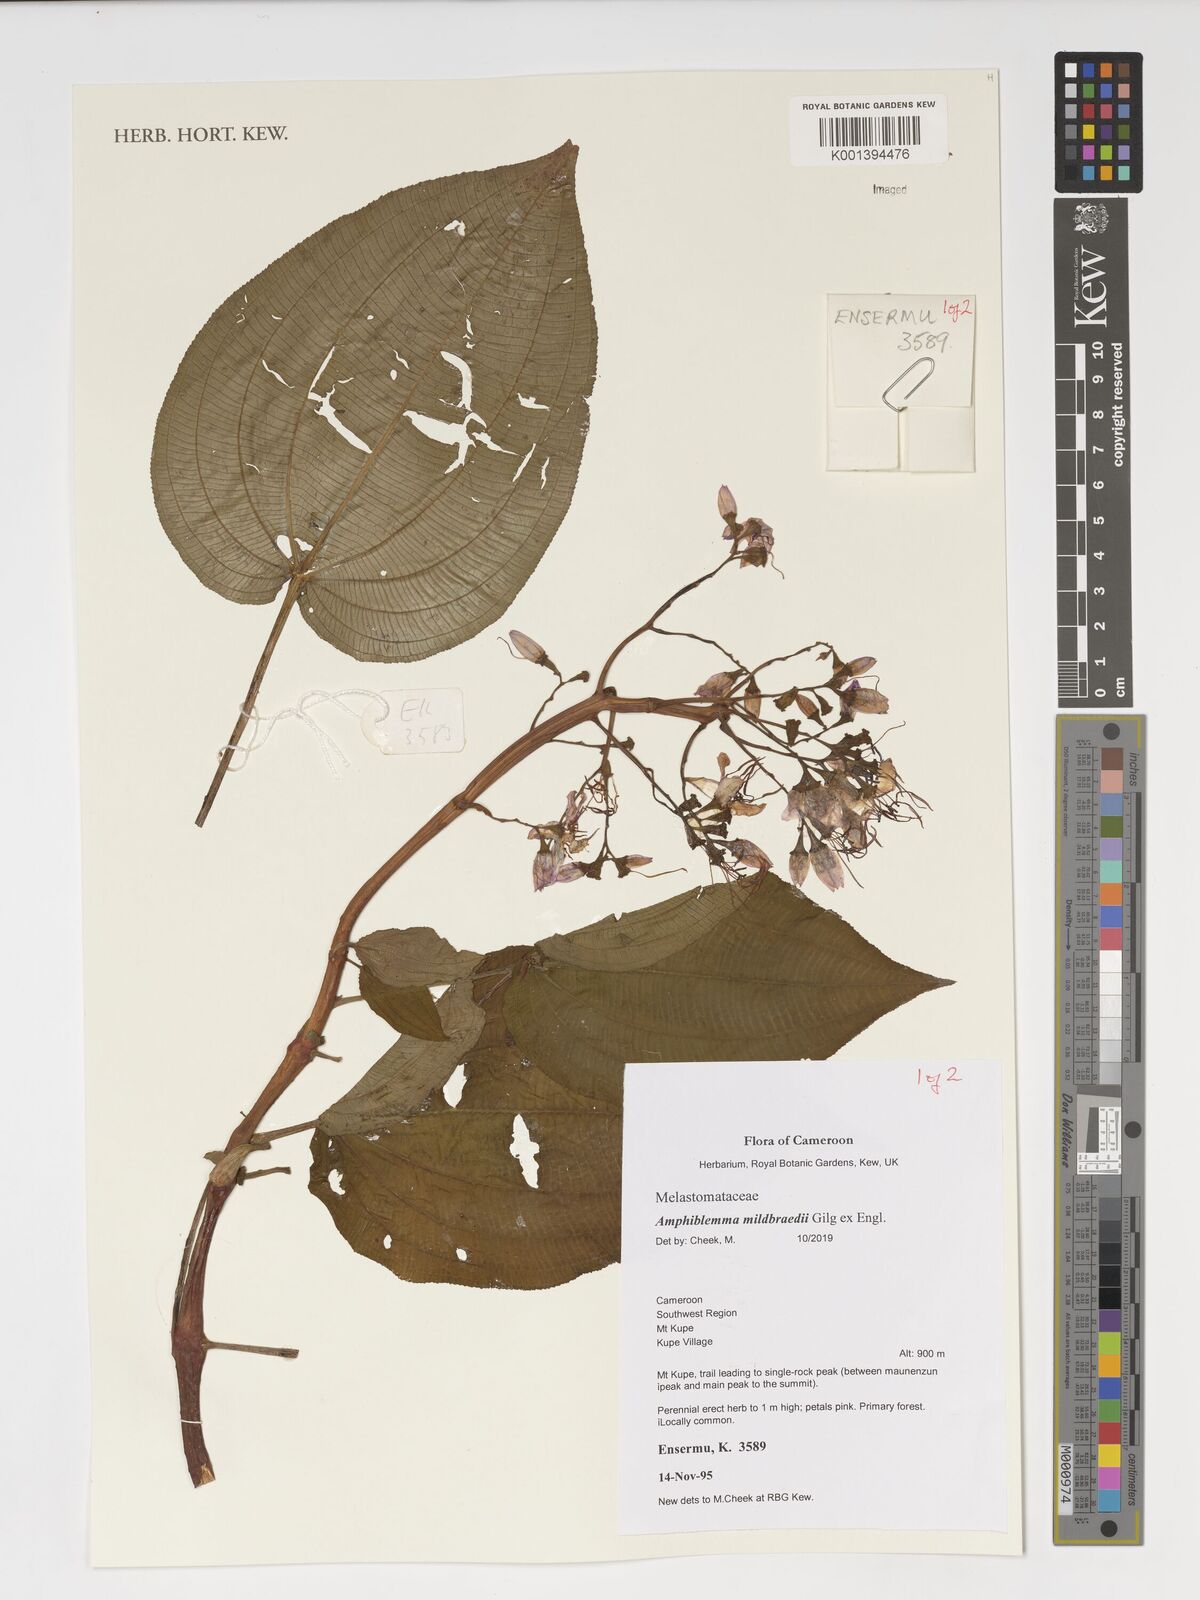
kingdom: Plantae
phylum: Tracheophyta
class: Magnoliopsida
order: Myrtales
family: Melastomataceae
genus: Amphiblemma
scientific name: Amphiblemma mildbraedii
